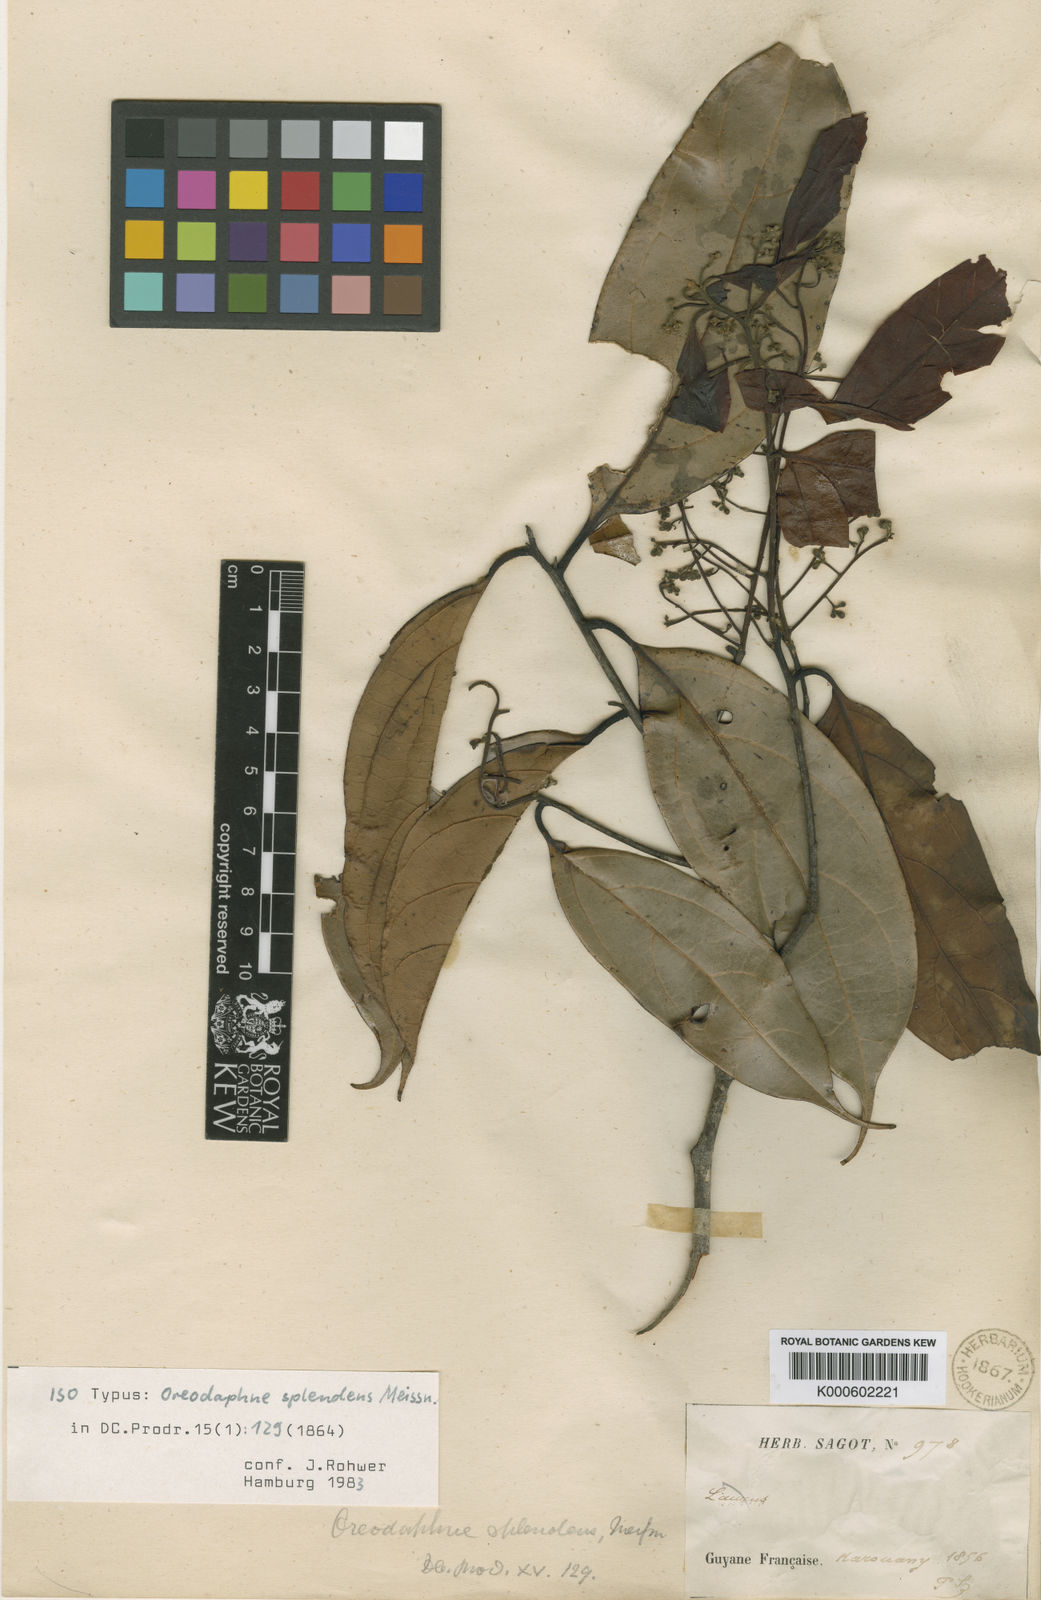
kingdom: Plantae
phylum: Tracheophyta
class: Magnoliopsida
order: Laurales
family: Lauraceae
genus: Ocotea
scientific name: Ocotea splendens
